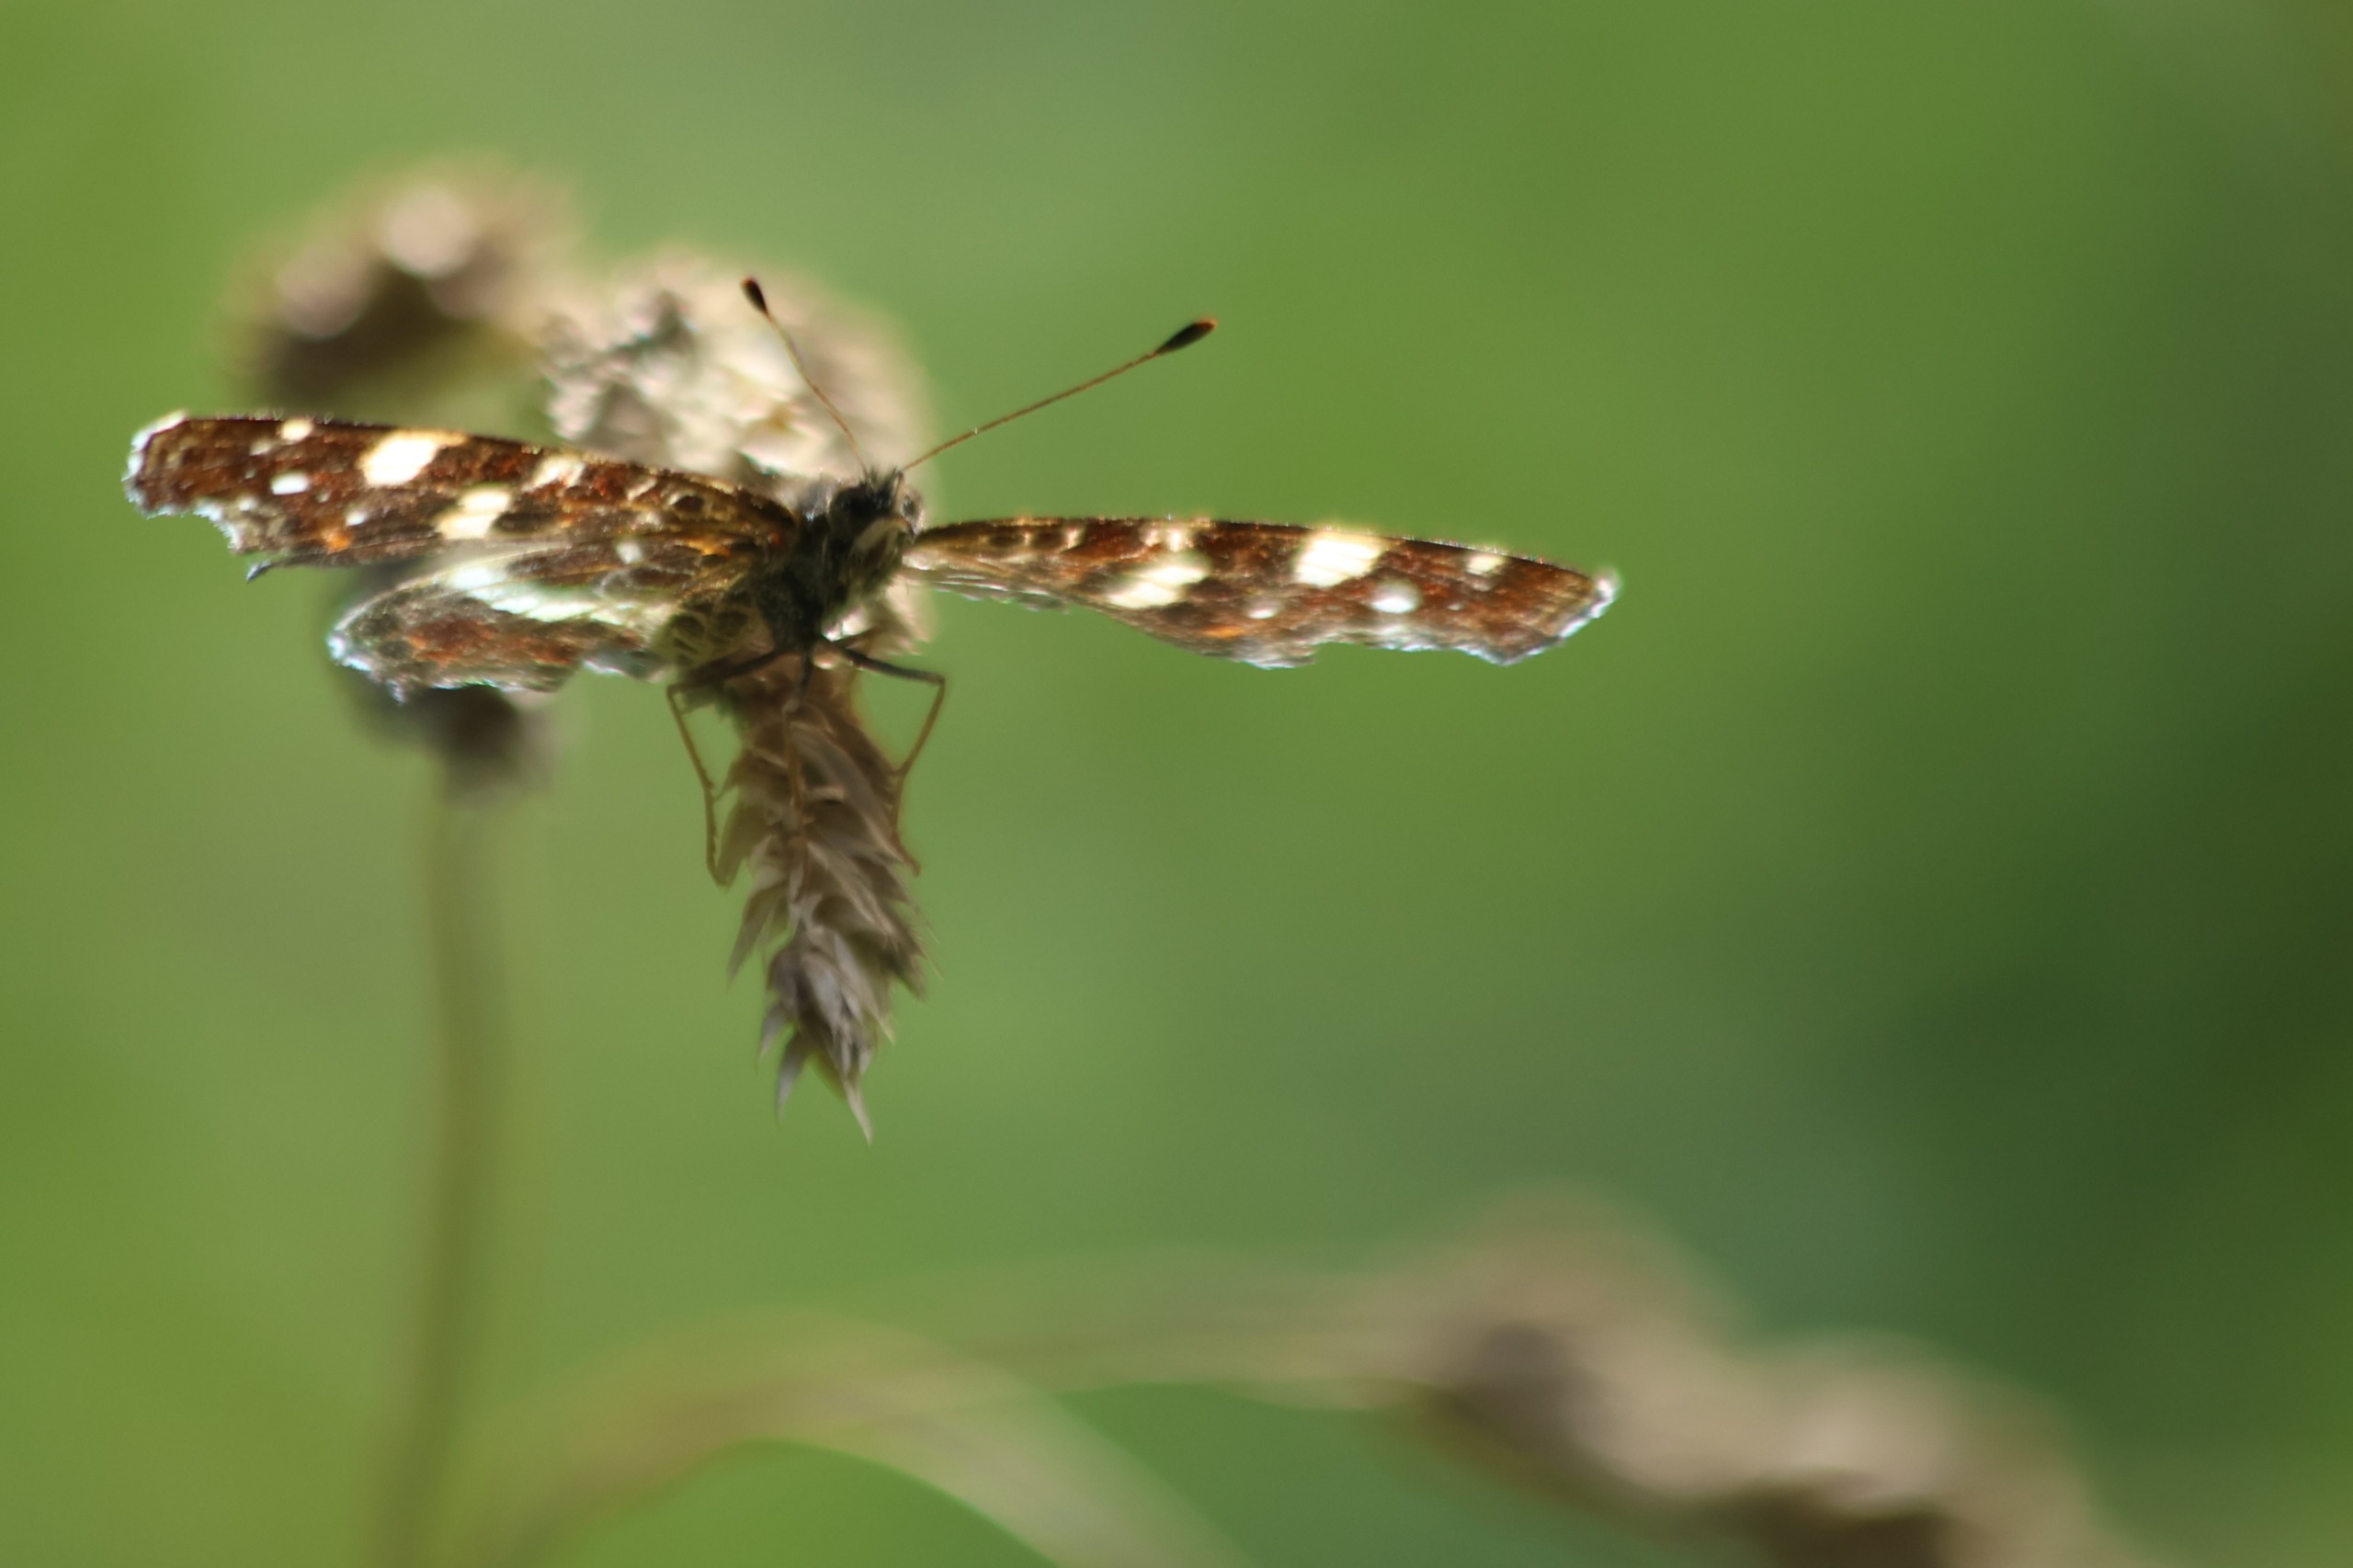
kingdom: Animalia
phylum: Arthropoda
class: Insecta
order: Lepidoptera
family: Nymphalidae
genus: Araschnia
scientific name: Araschnia levana
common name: Nældesommerfugl
